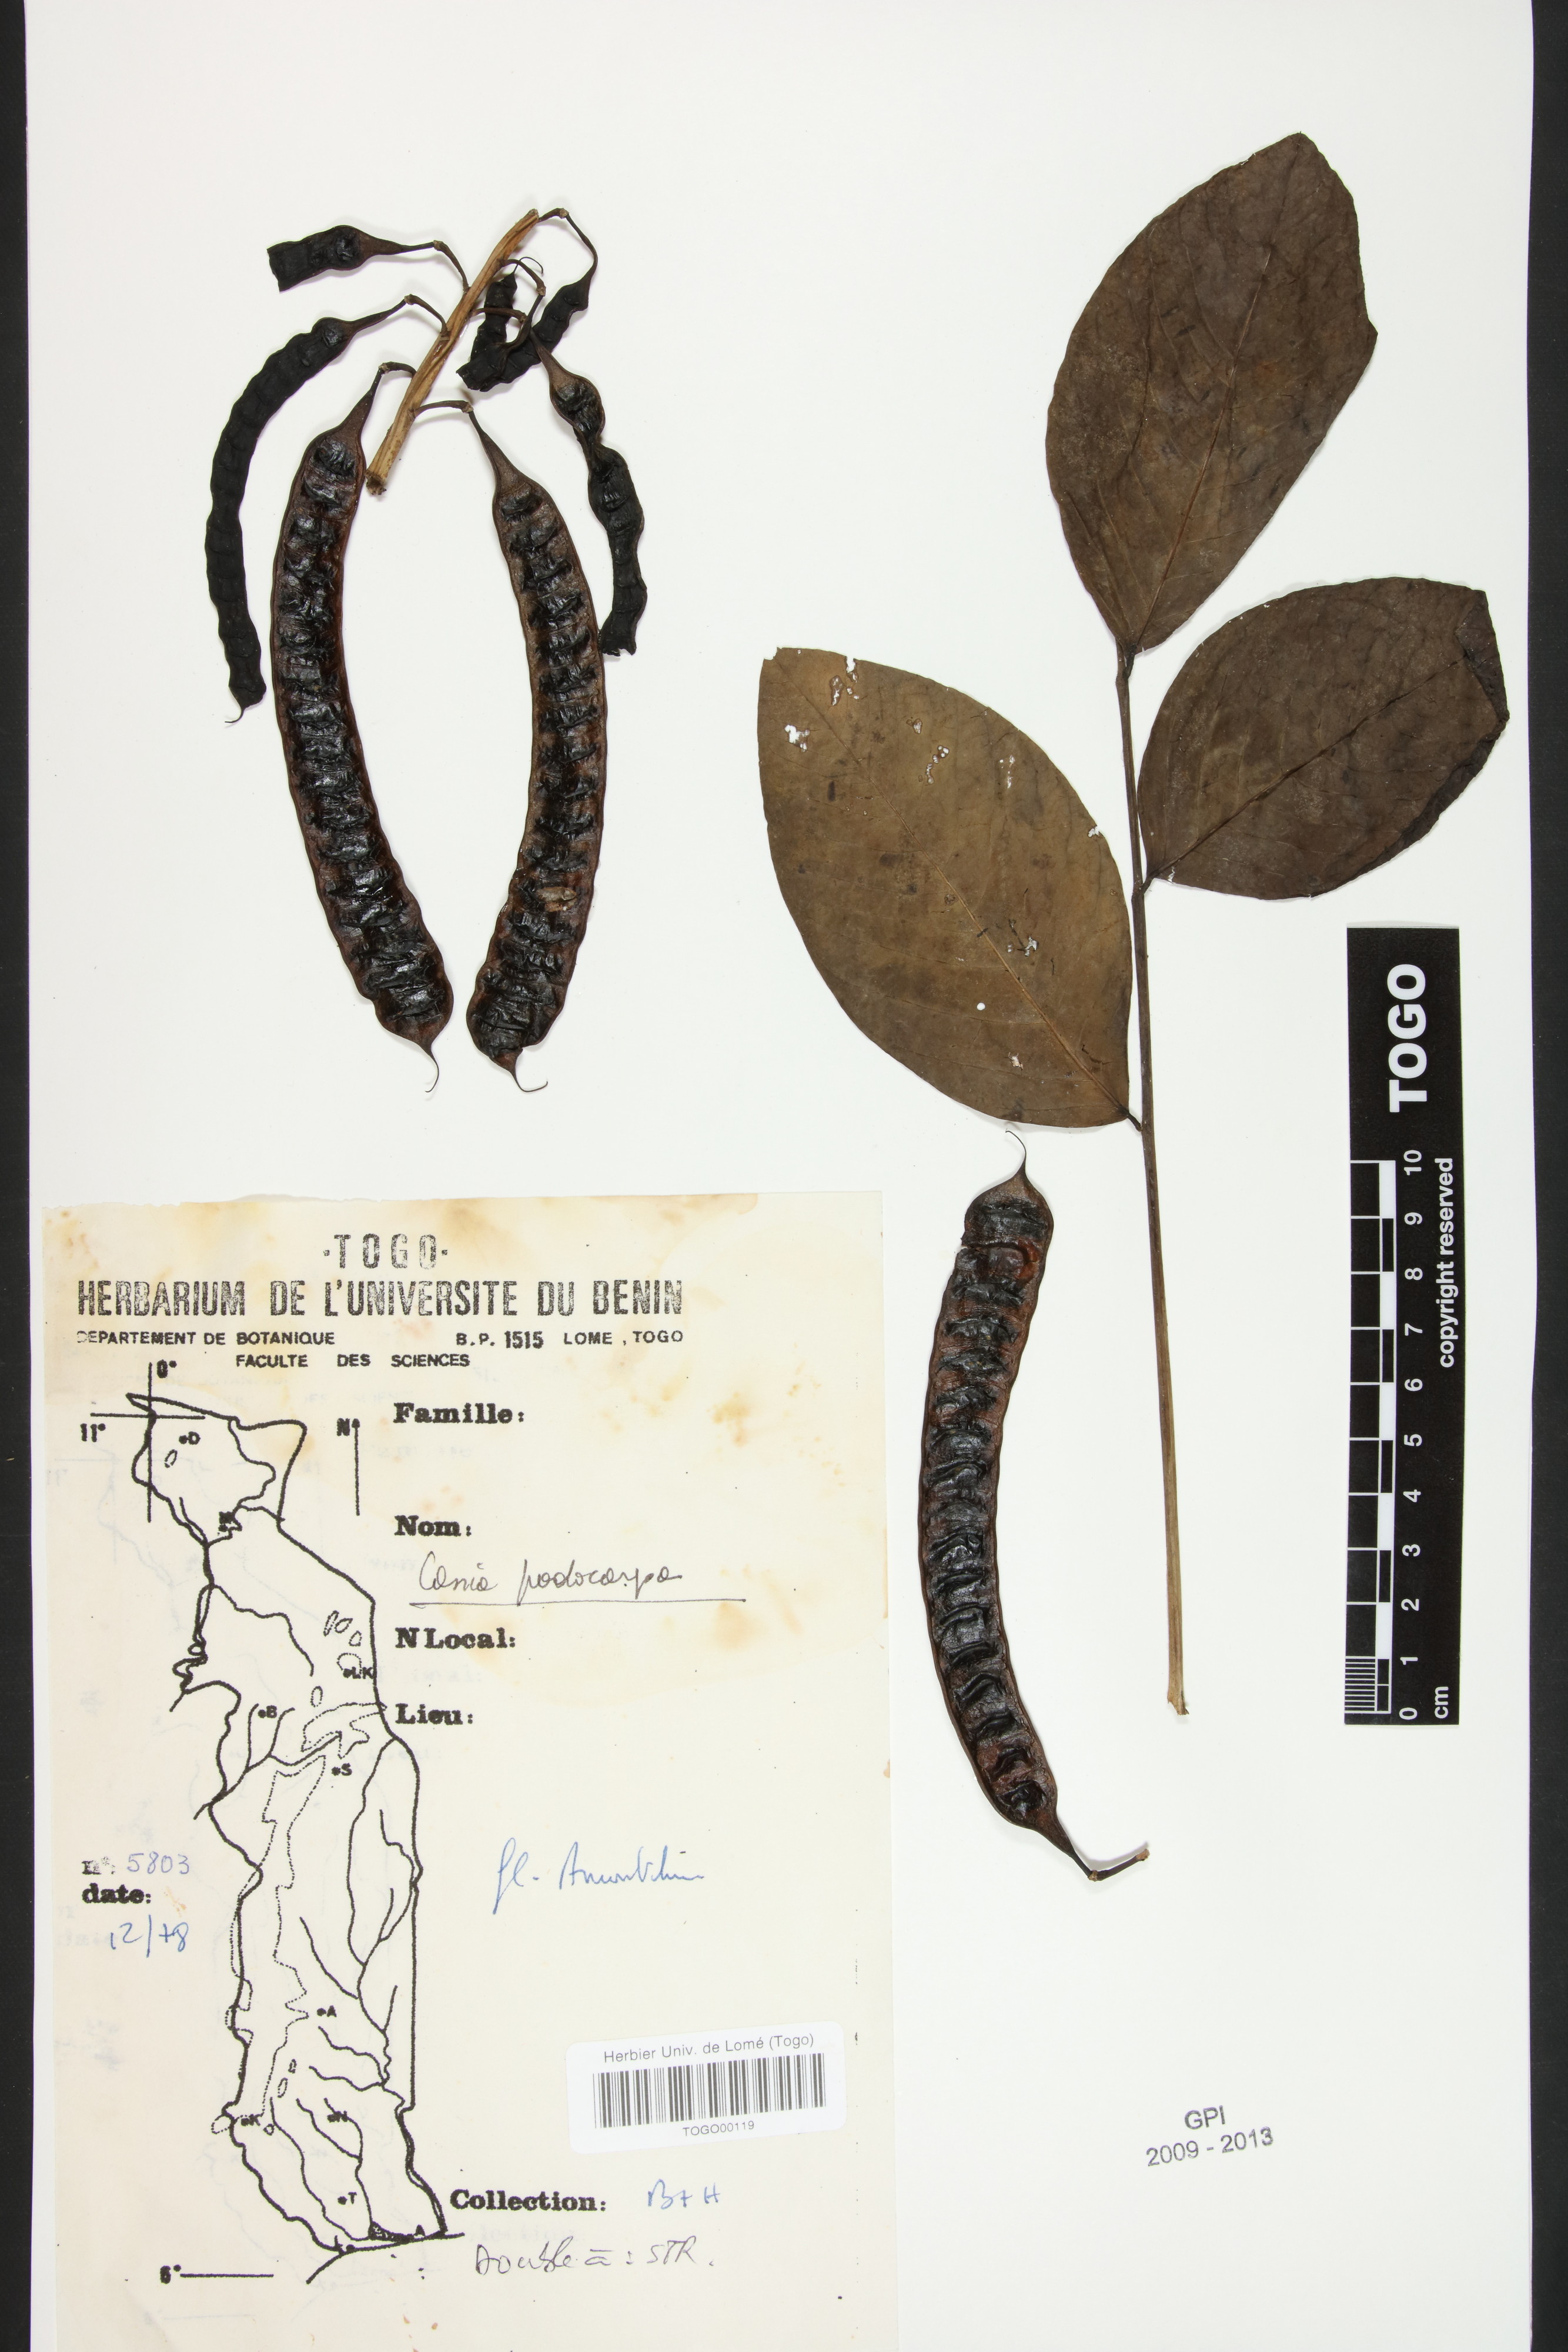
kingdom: Plantae
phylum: Tracheophyta
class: Magnoliopsida
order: Fabales
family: Fabaceae
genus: Senna
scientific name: Senna podocarpa
